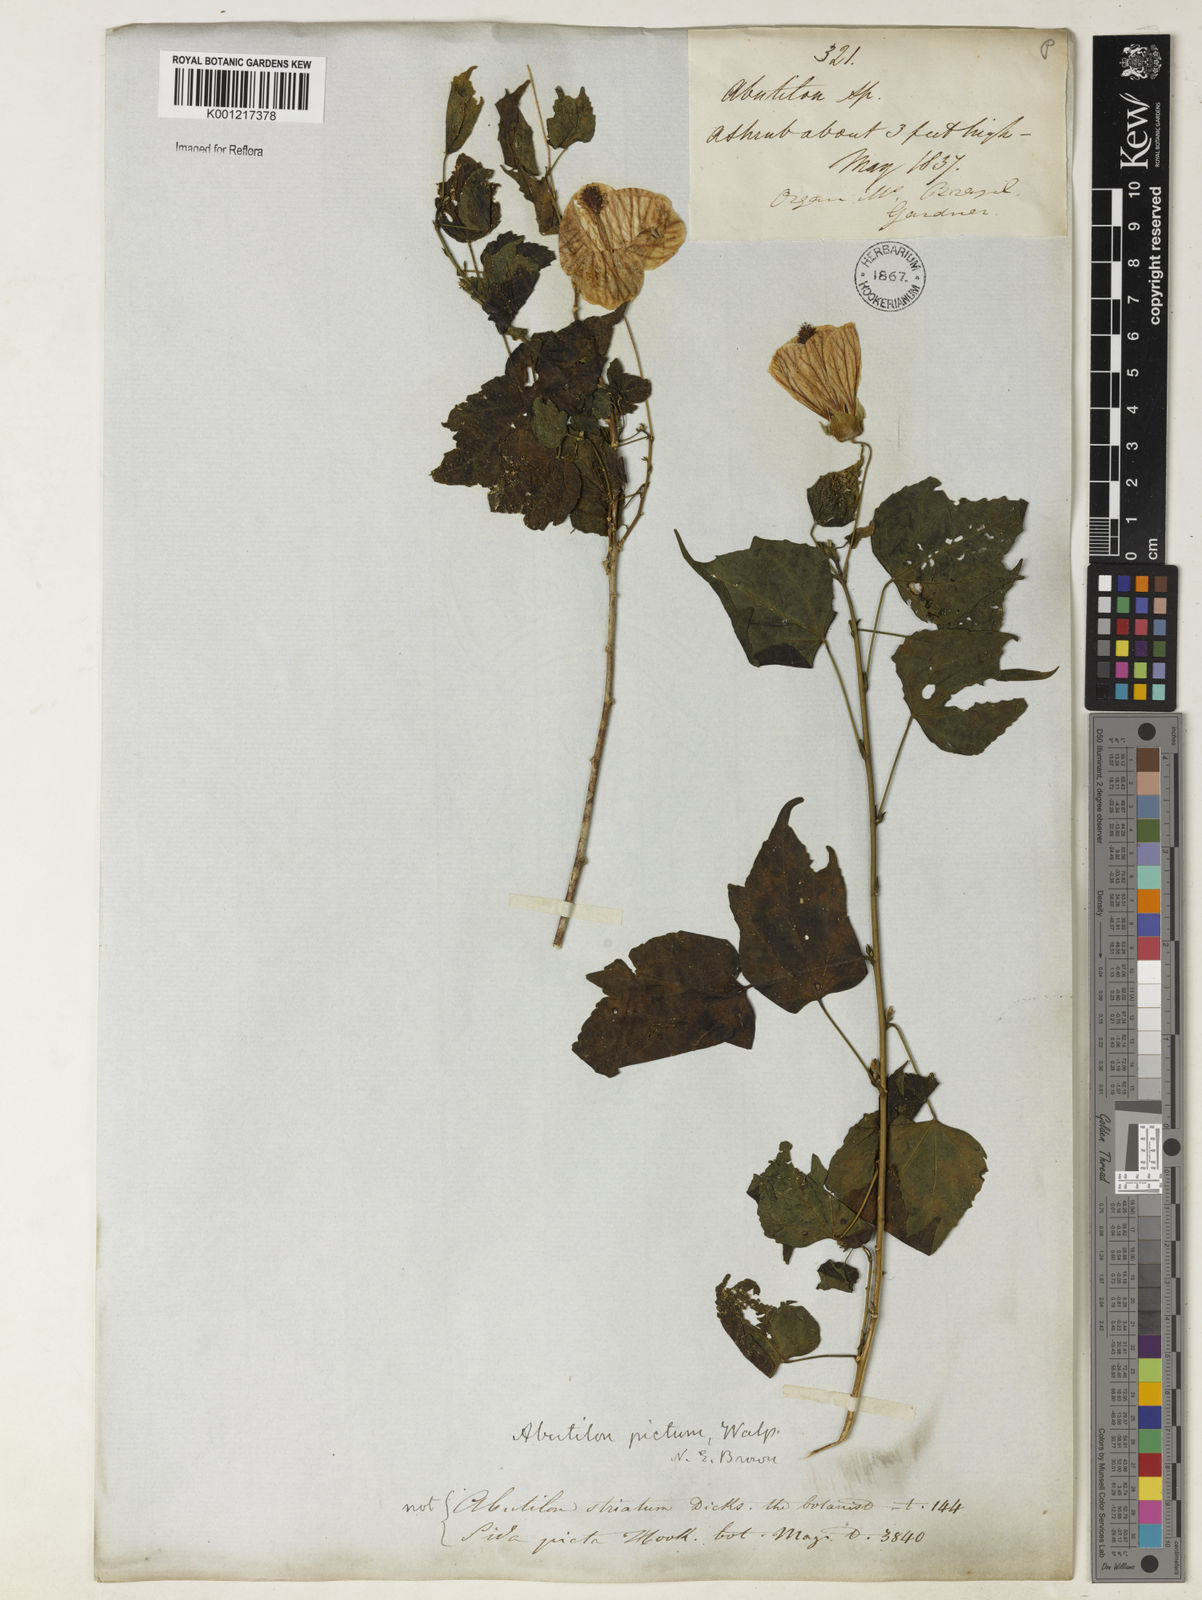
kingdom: Plantae
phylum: Tracheophyta
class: Magnoliopsida
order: Malvales
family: Malvaceae
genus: Callianthe
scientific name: Callianthe picta
